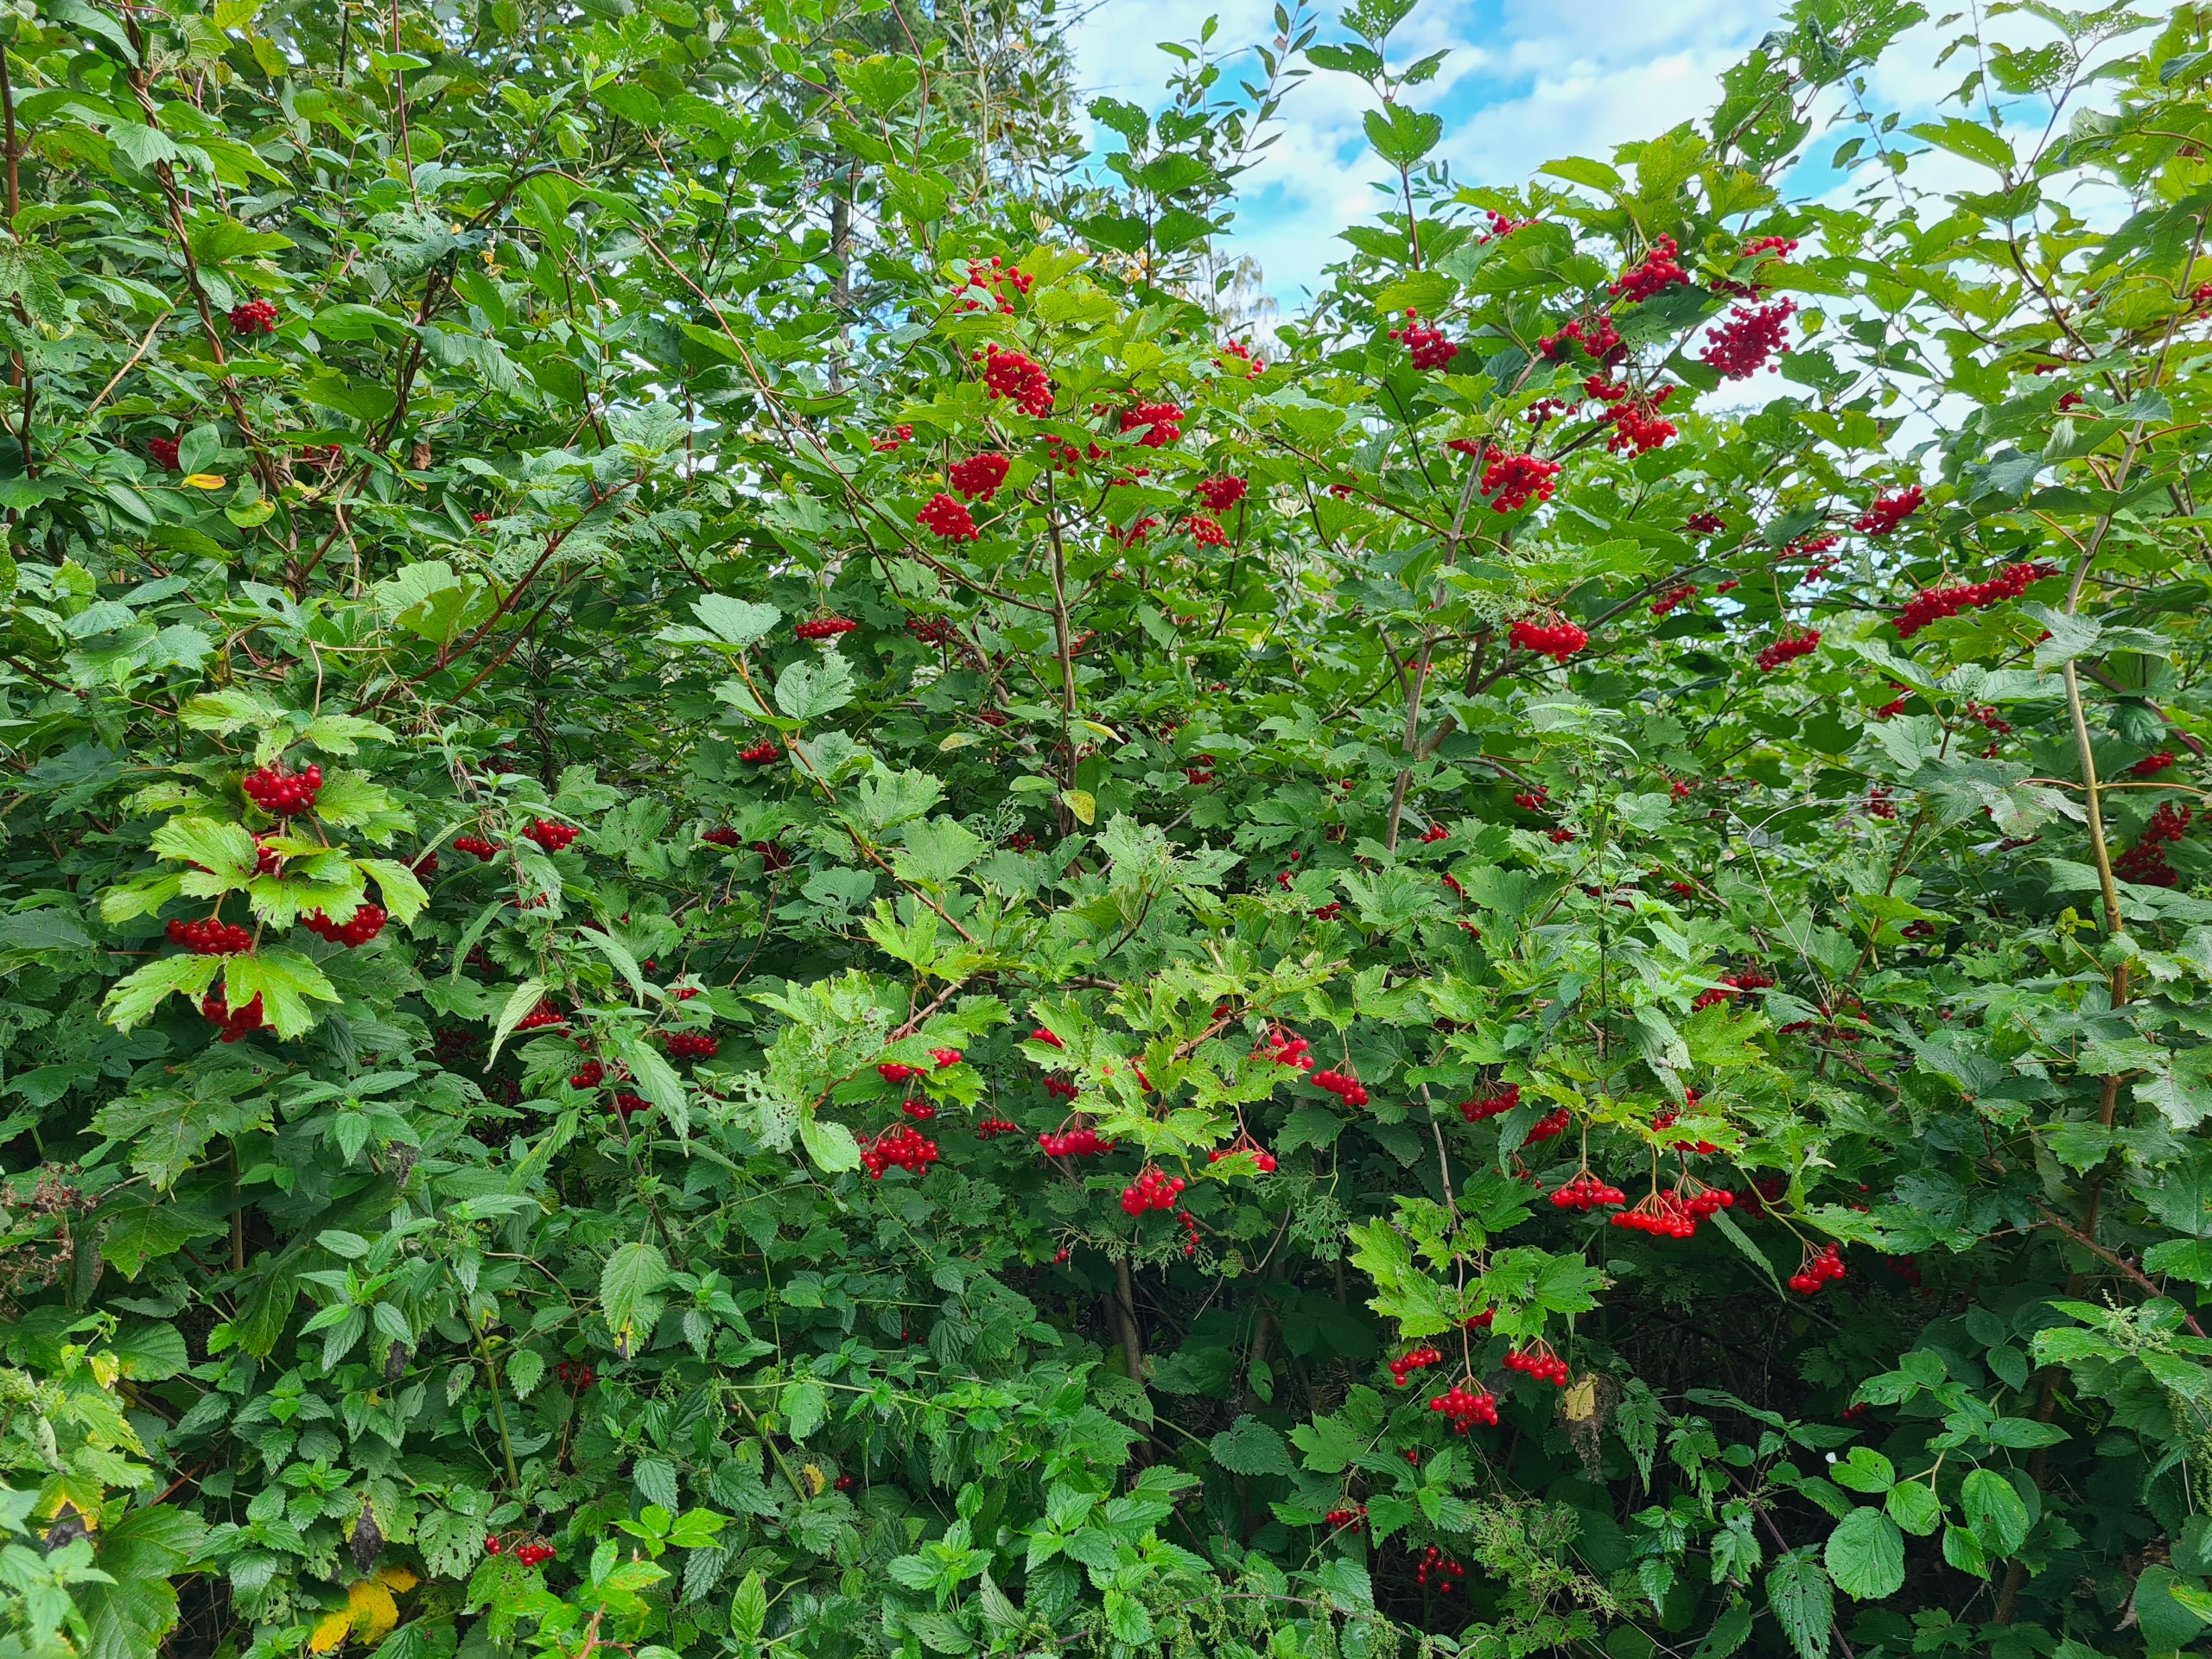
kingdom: Plantae
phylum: Tracheophyta
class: Magnoliopsida
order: Dipsacales
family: Viburnaceae
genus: Viburnum
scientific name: Viburnum opulus
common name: Kvalkved
